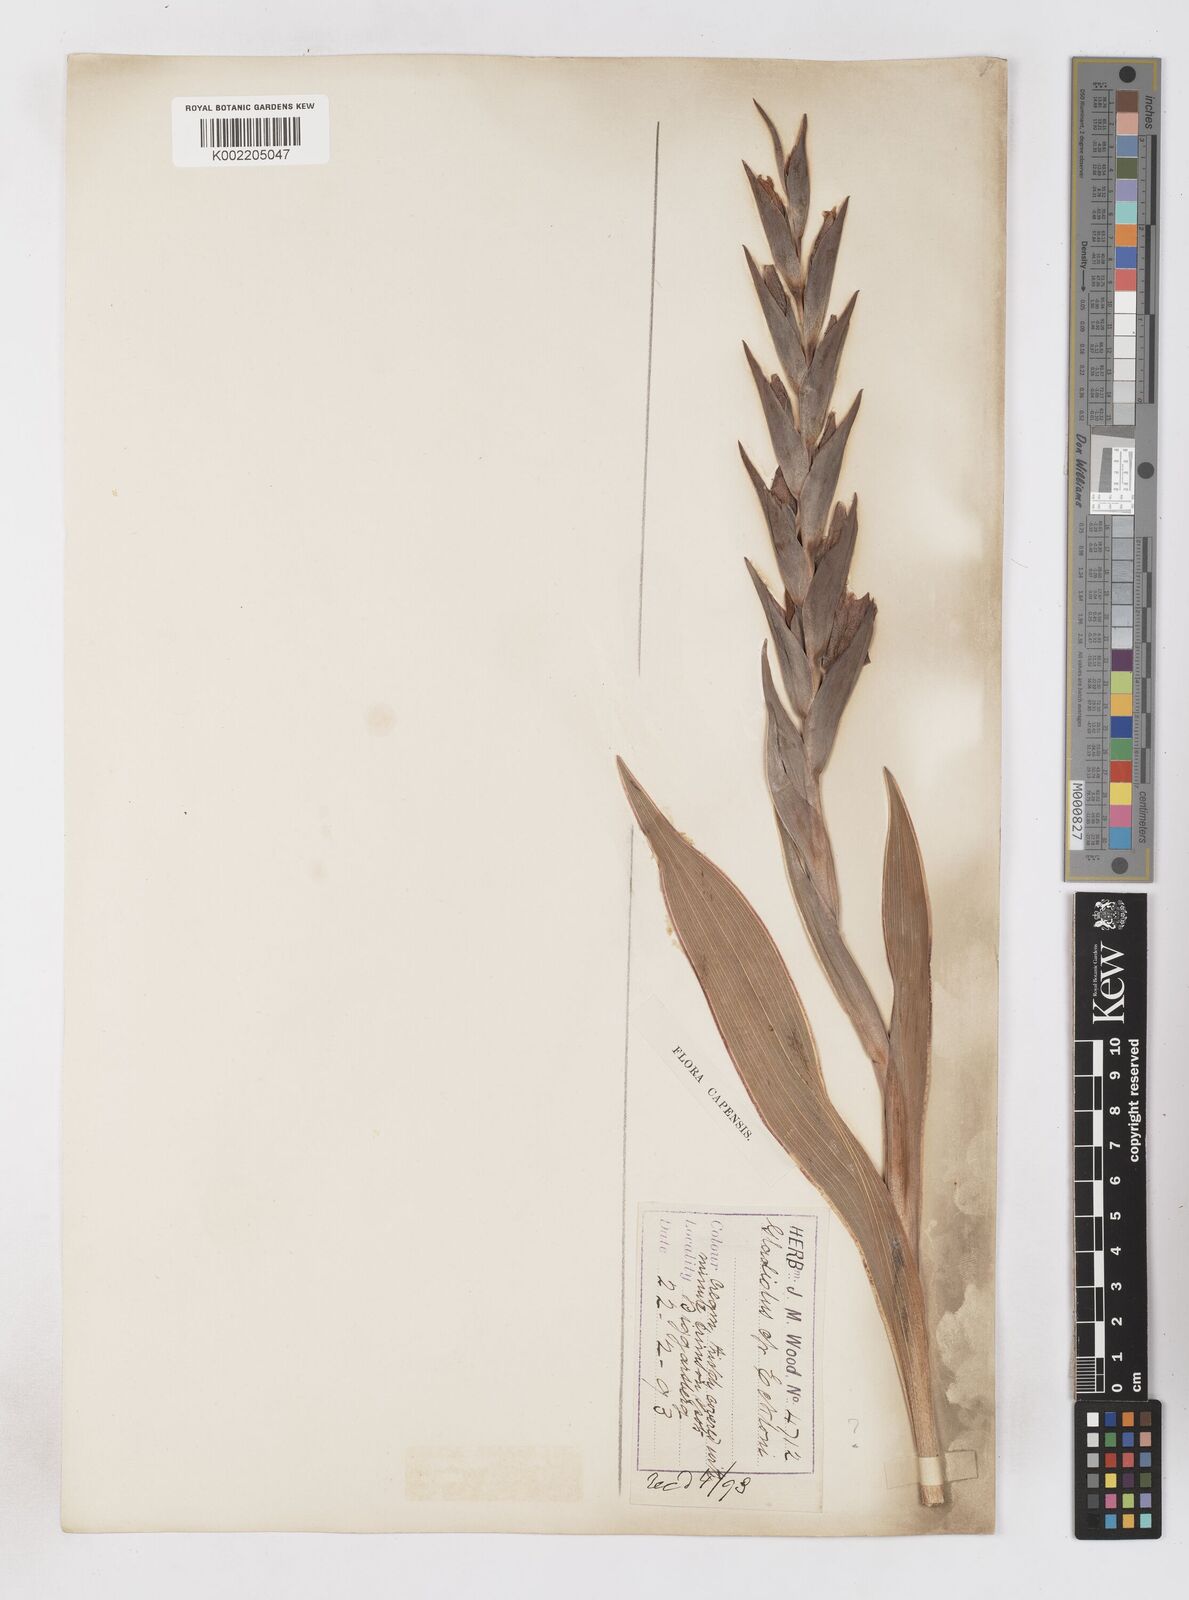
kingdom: Plantae
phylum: Tracheophyta
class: Liliopsida
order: Asparagales
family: Iridaceae
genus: Gladiolus
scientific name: Gladiolus ecklonii
